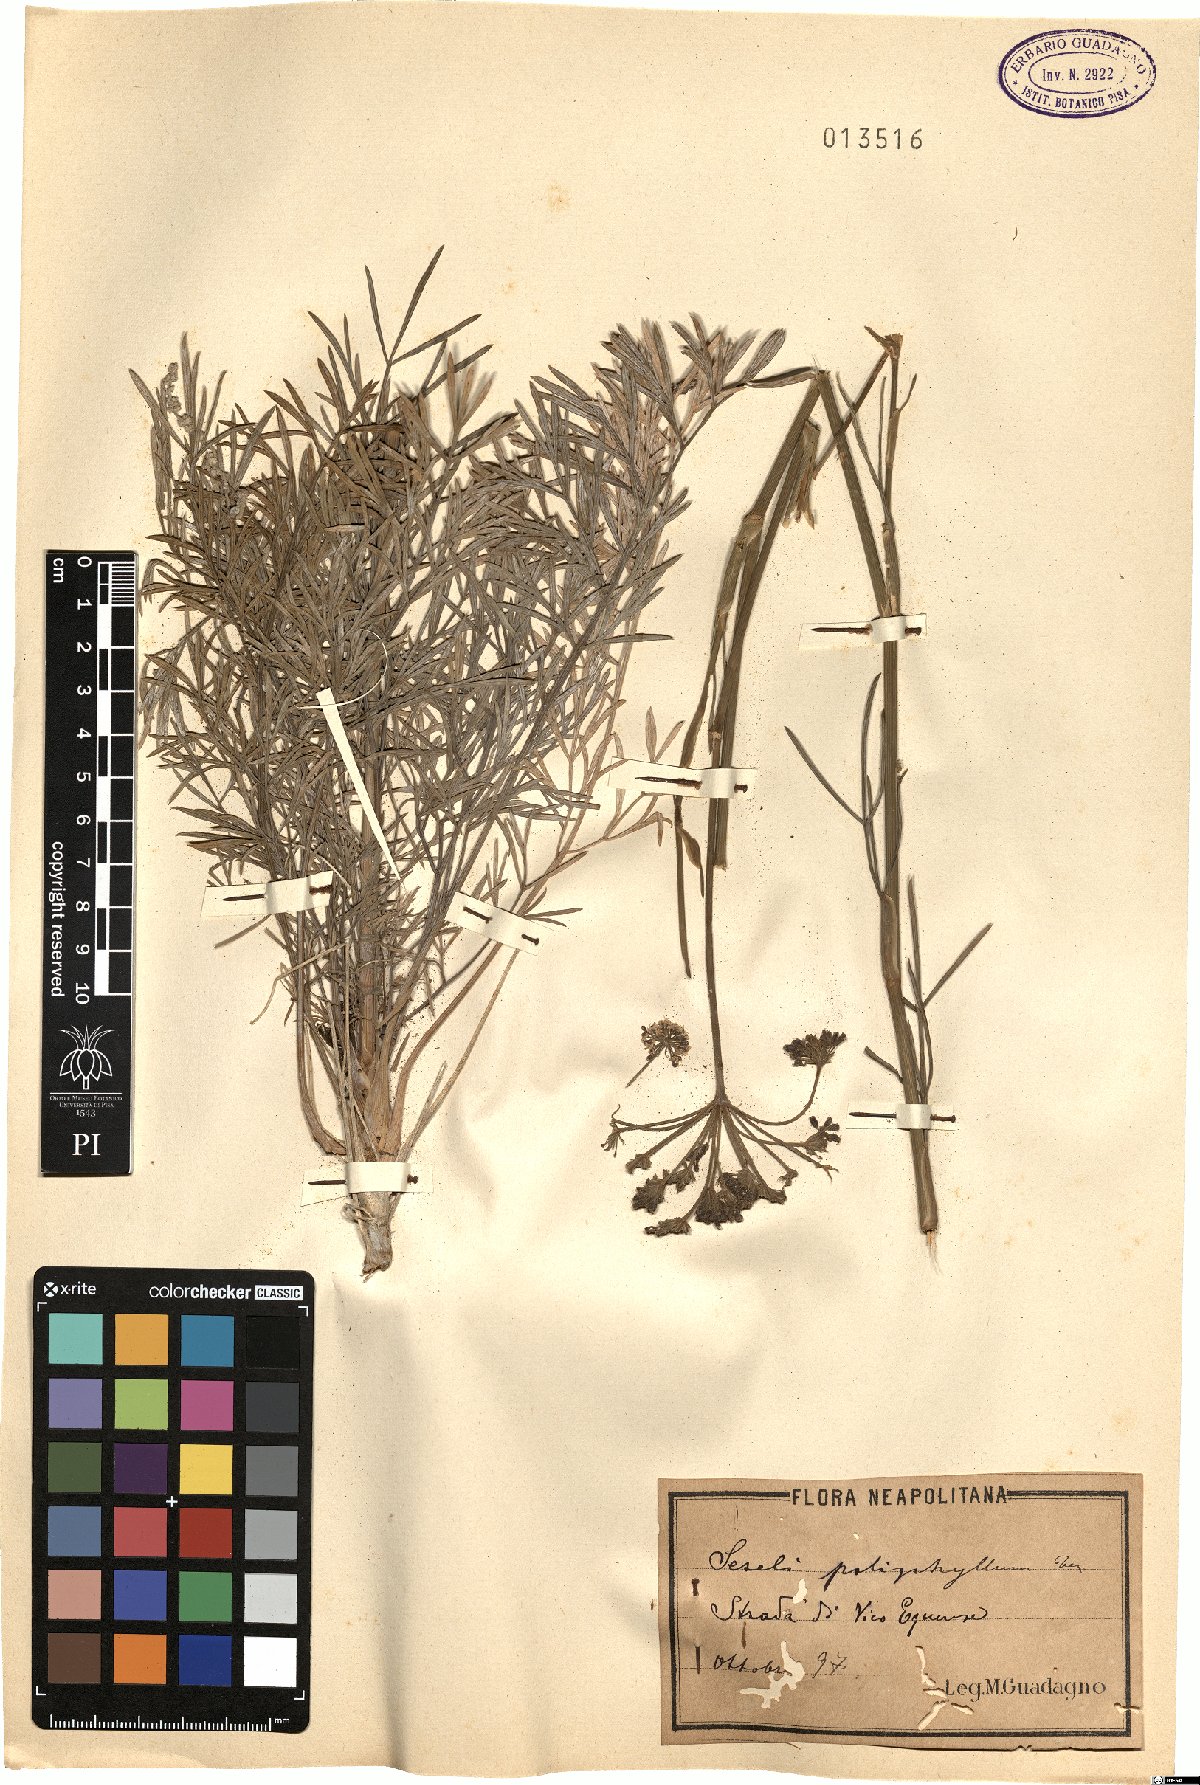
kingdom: Plantae
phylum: Tracheophyta
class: Magnoliopsida
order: Apiales
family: Apiaceae
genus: Seseli
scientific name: Seseli polyphyllum
